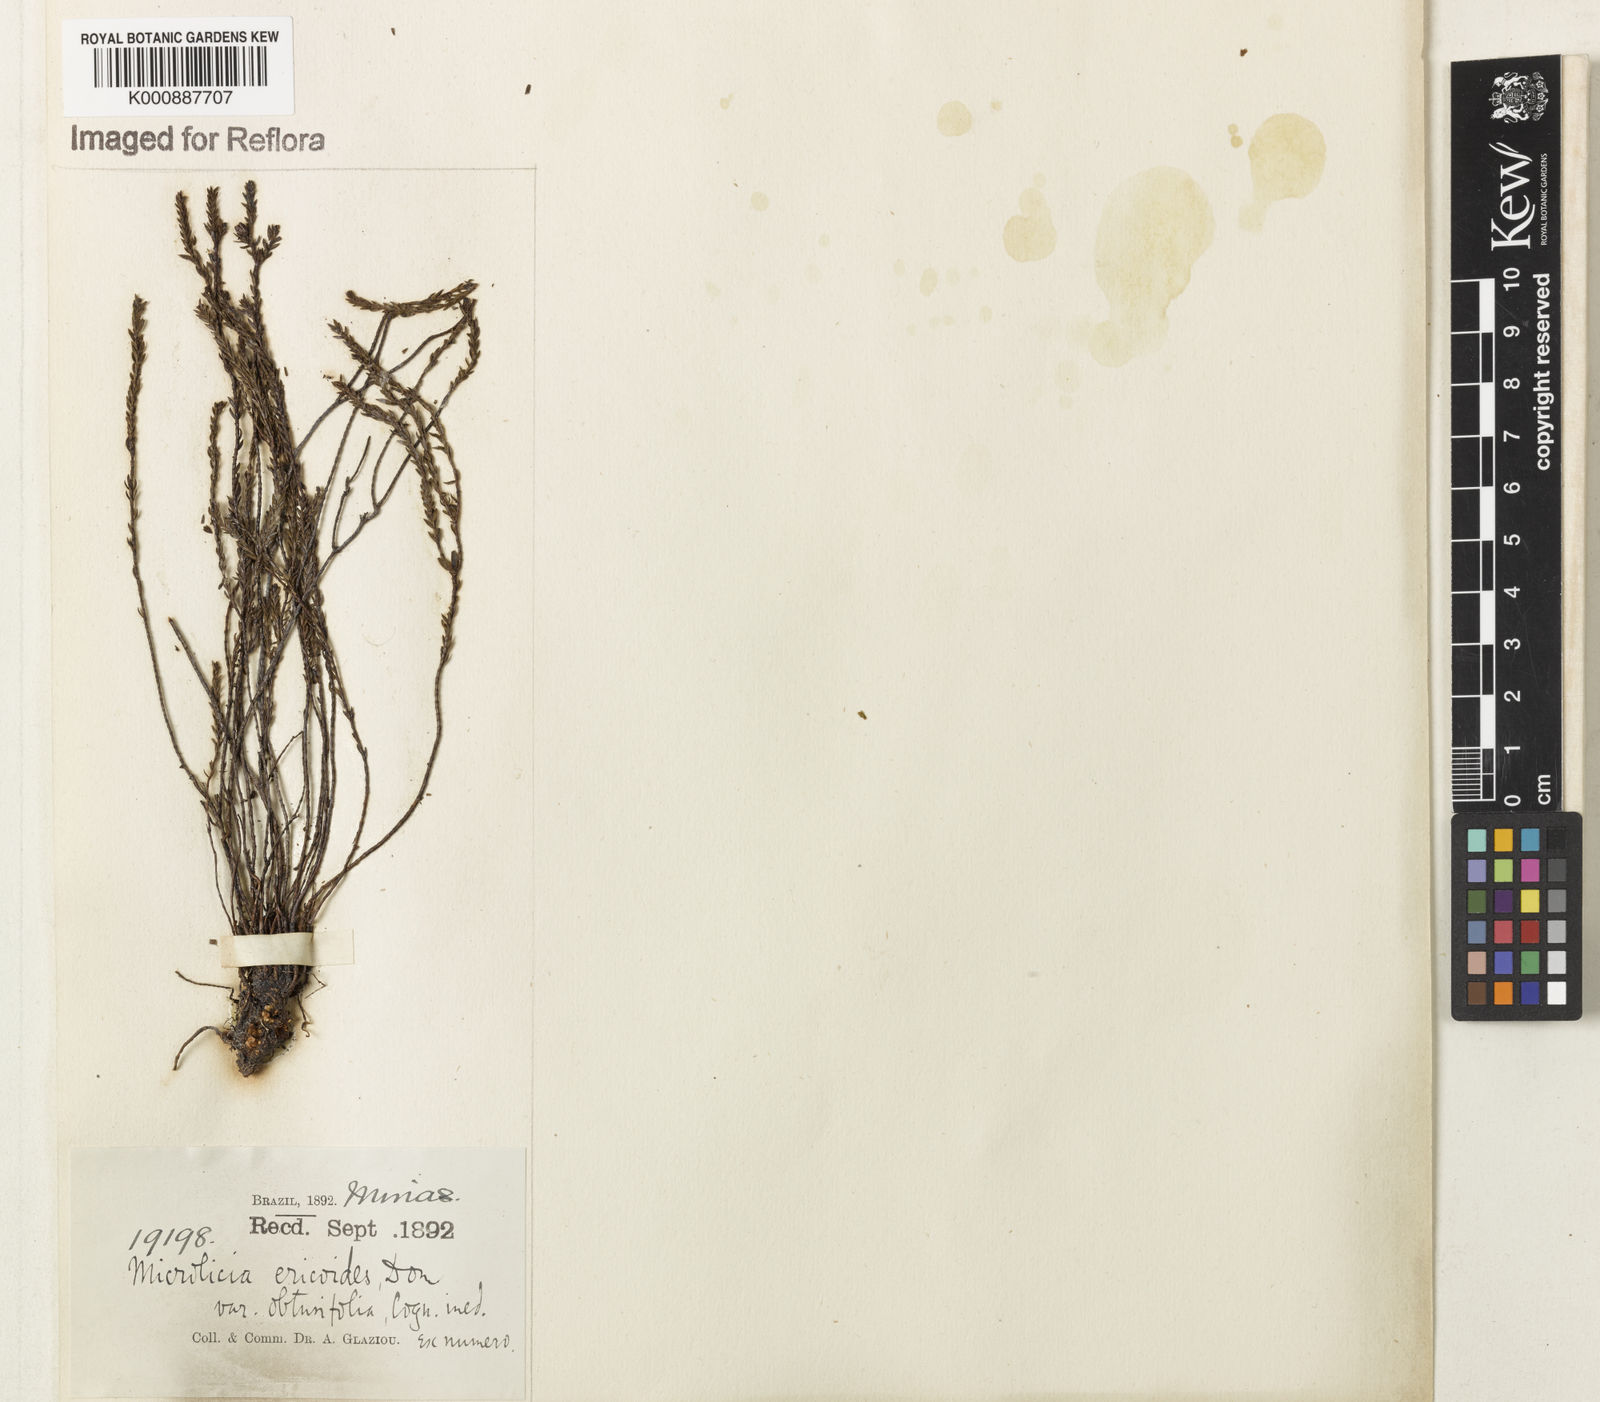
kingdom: Plantae
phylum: Tracheophyta
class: Magnoliopsida
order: Myrtales
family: Melastomataceae
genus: Microlicia
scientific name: Microlicia ericoides
